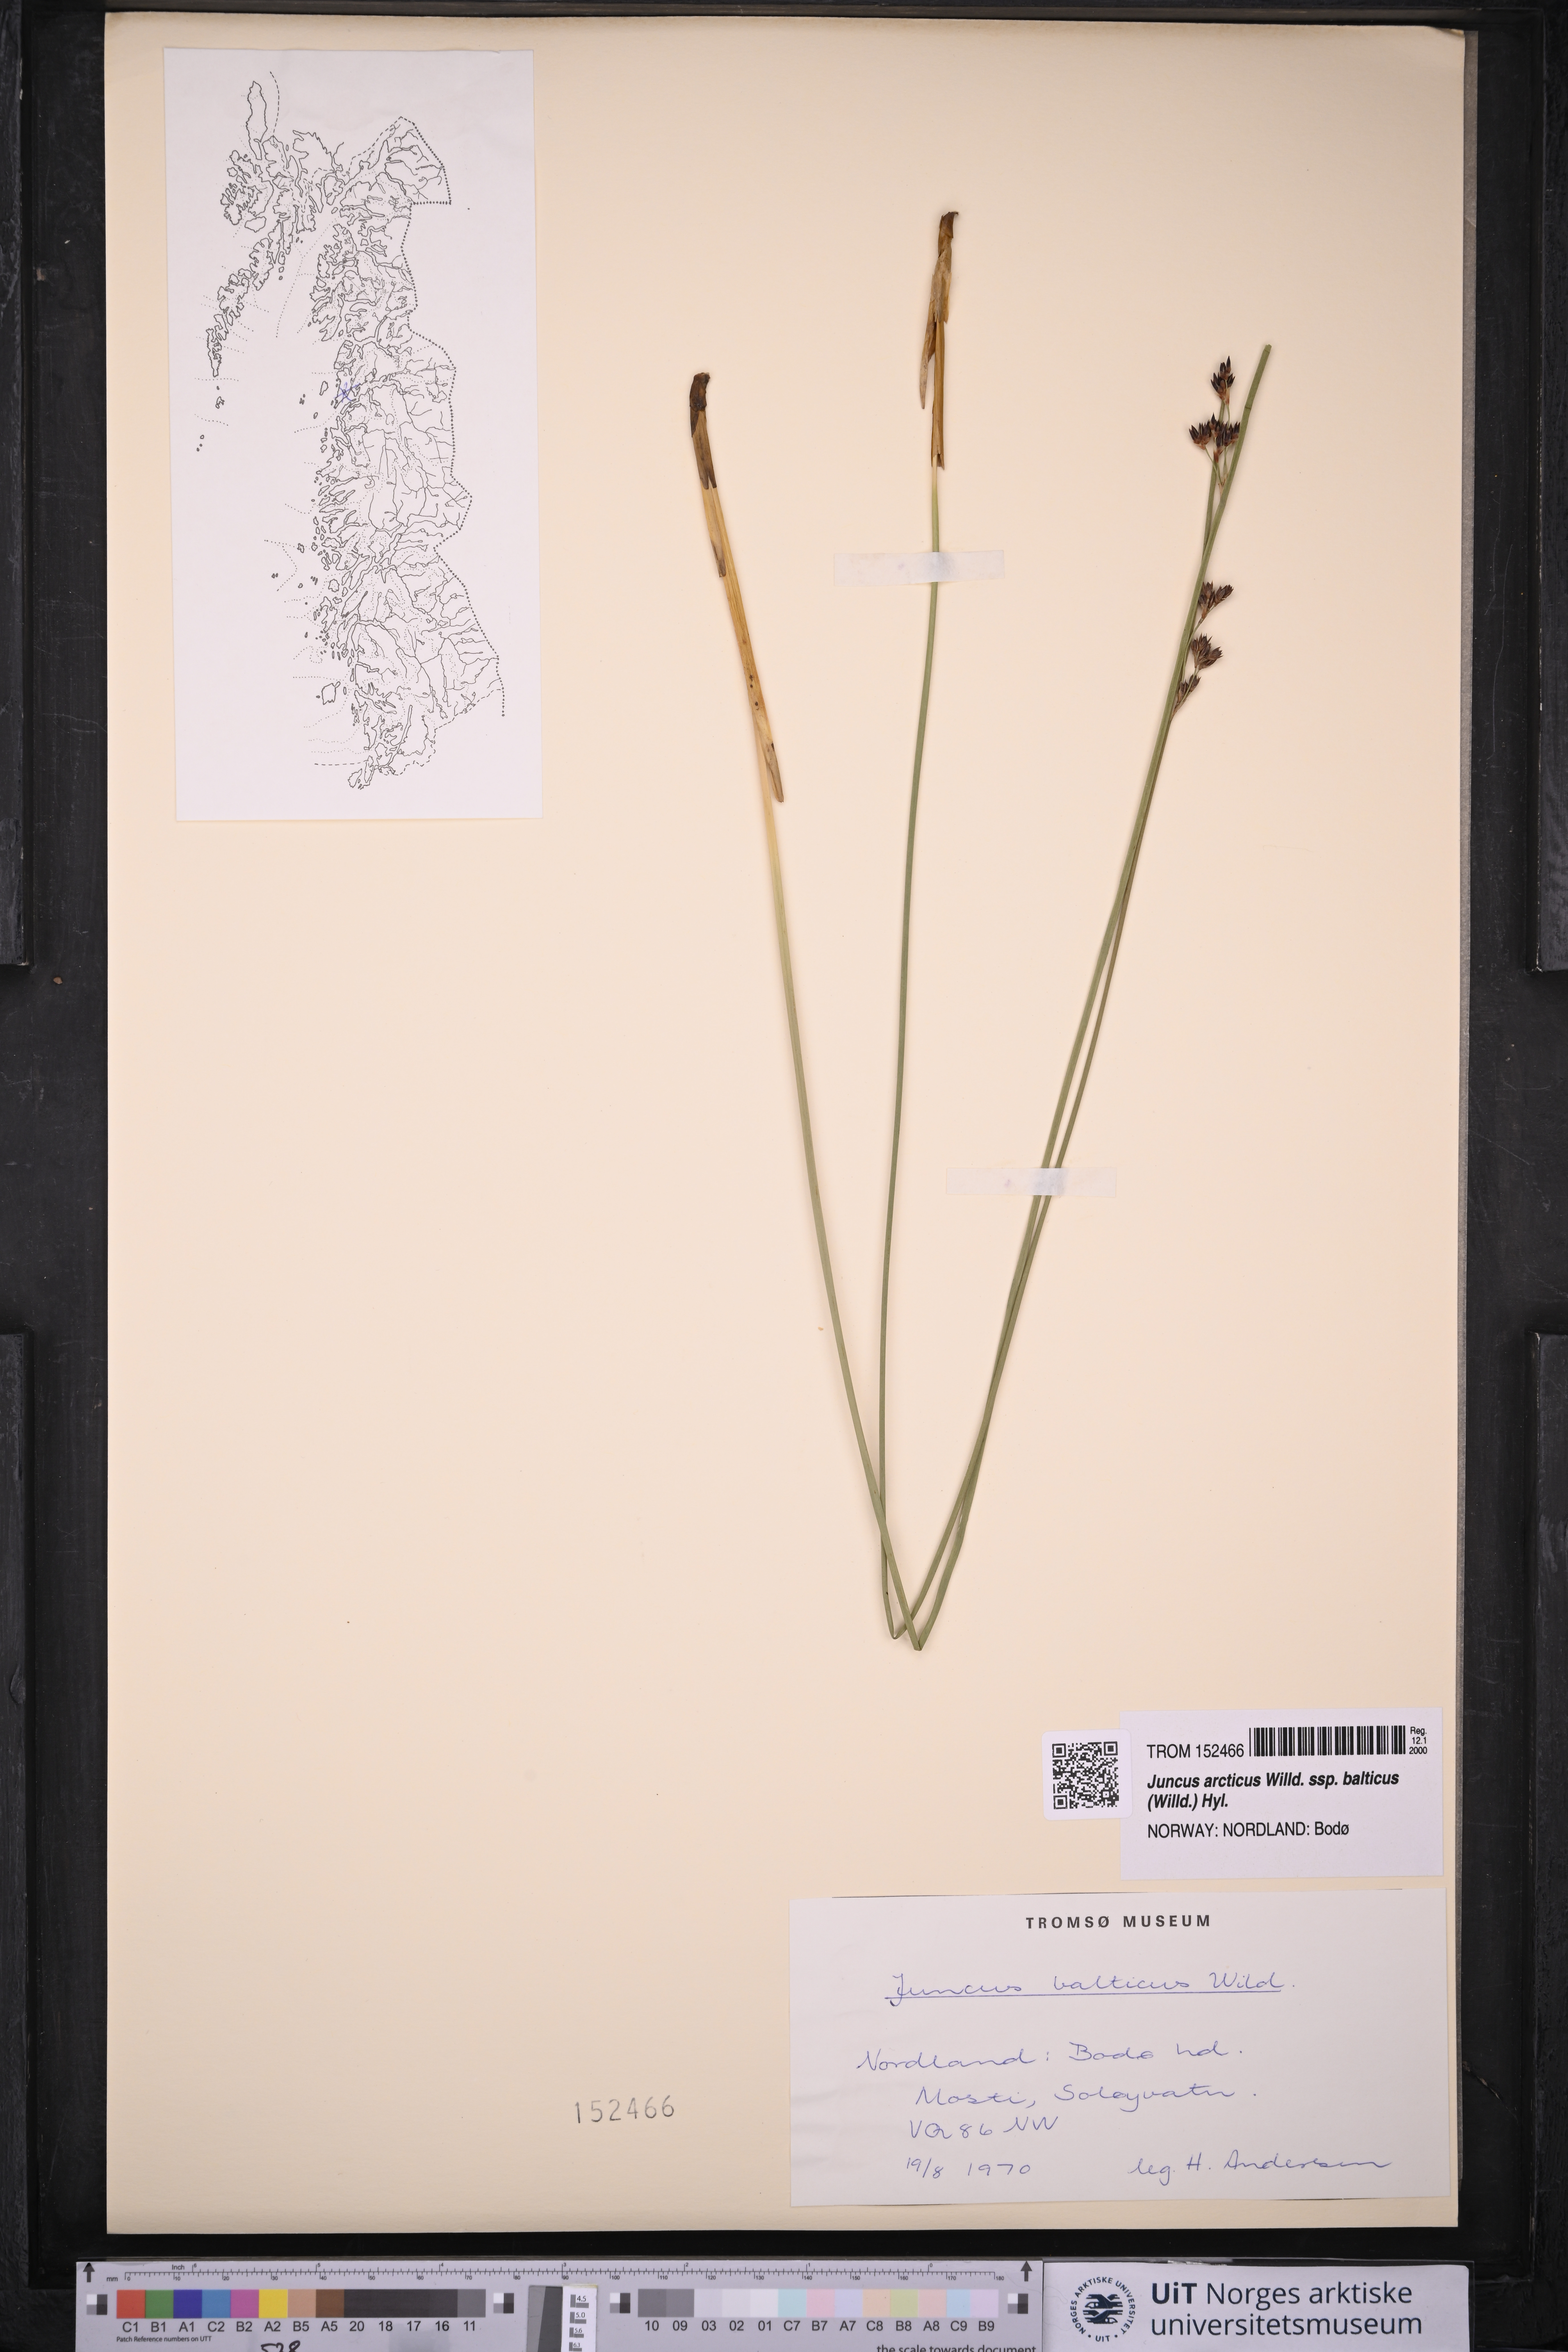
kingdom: Plantae
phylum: Tracheophyta
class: Liliopsida
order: Poales
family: Juncaceae
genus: Juncus
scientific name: Juncus balticus
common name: Baltic rush
